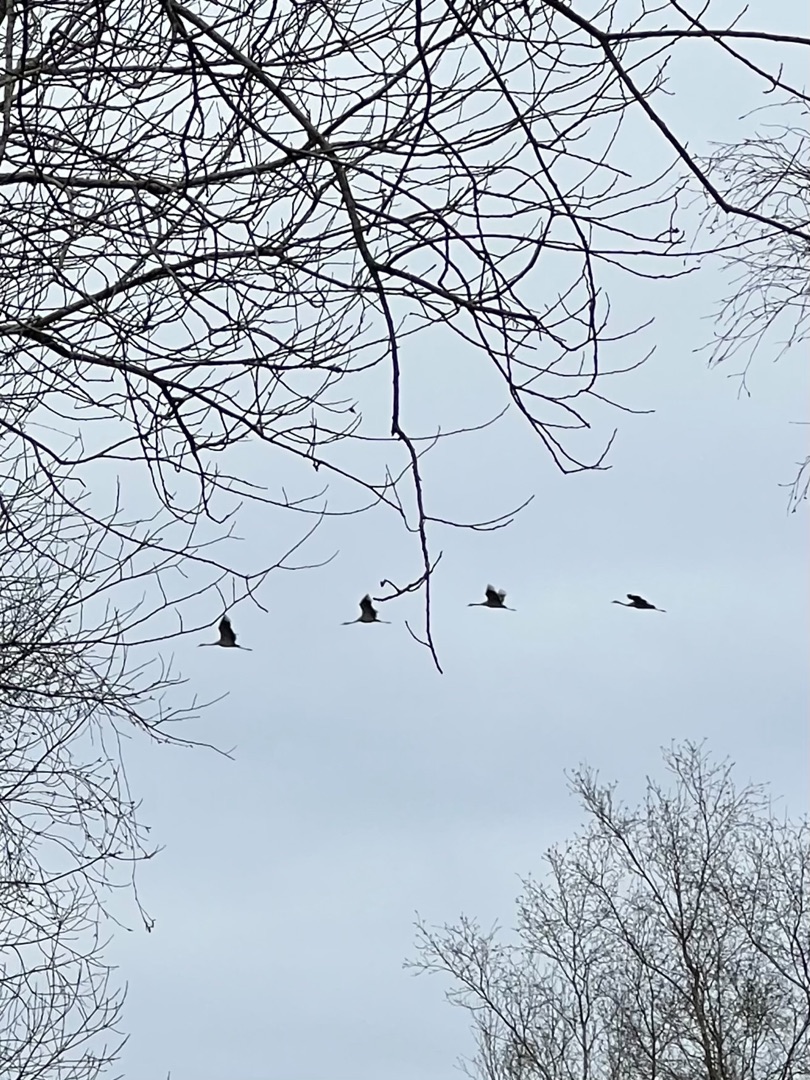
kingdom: Animalia
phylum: Chordata
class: Aves
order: Gruiformes
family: Gruidae
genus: Grus
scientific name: Grus grus
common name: Trane
